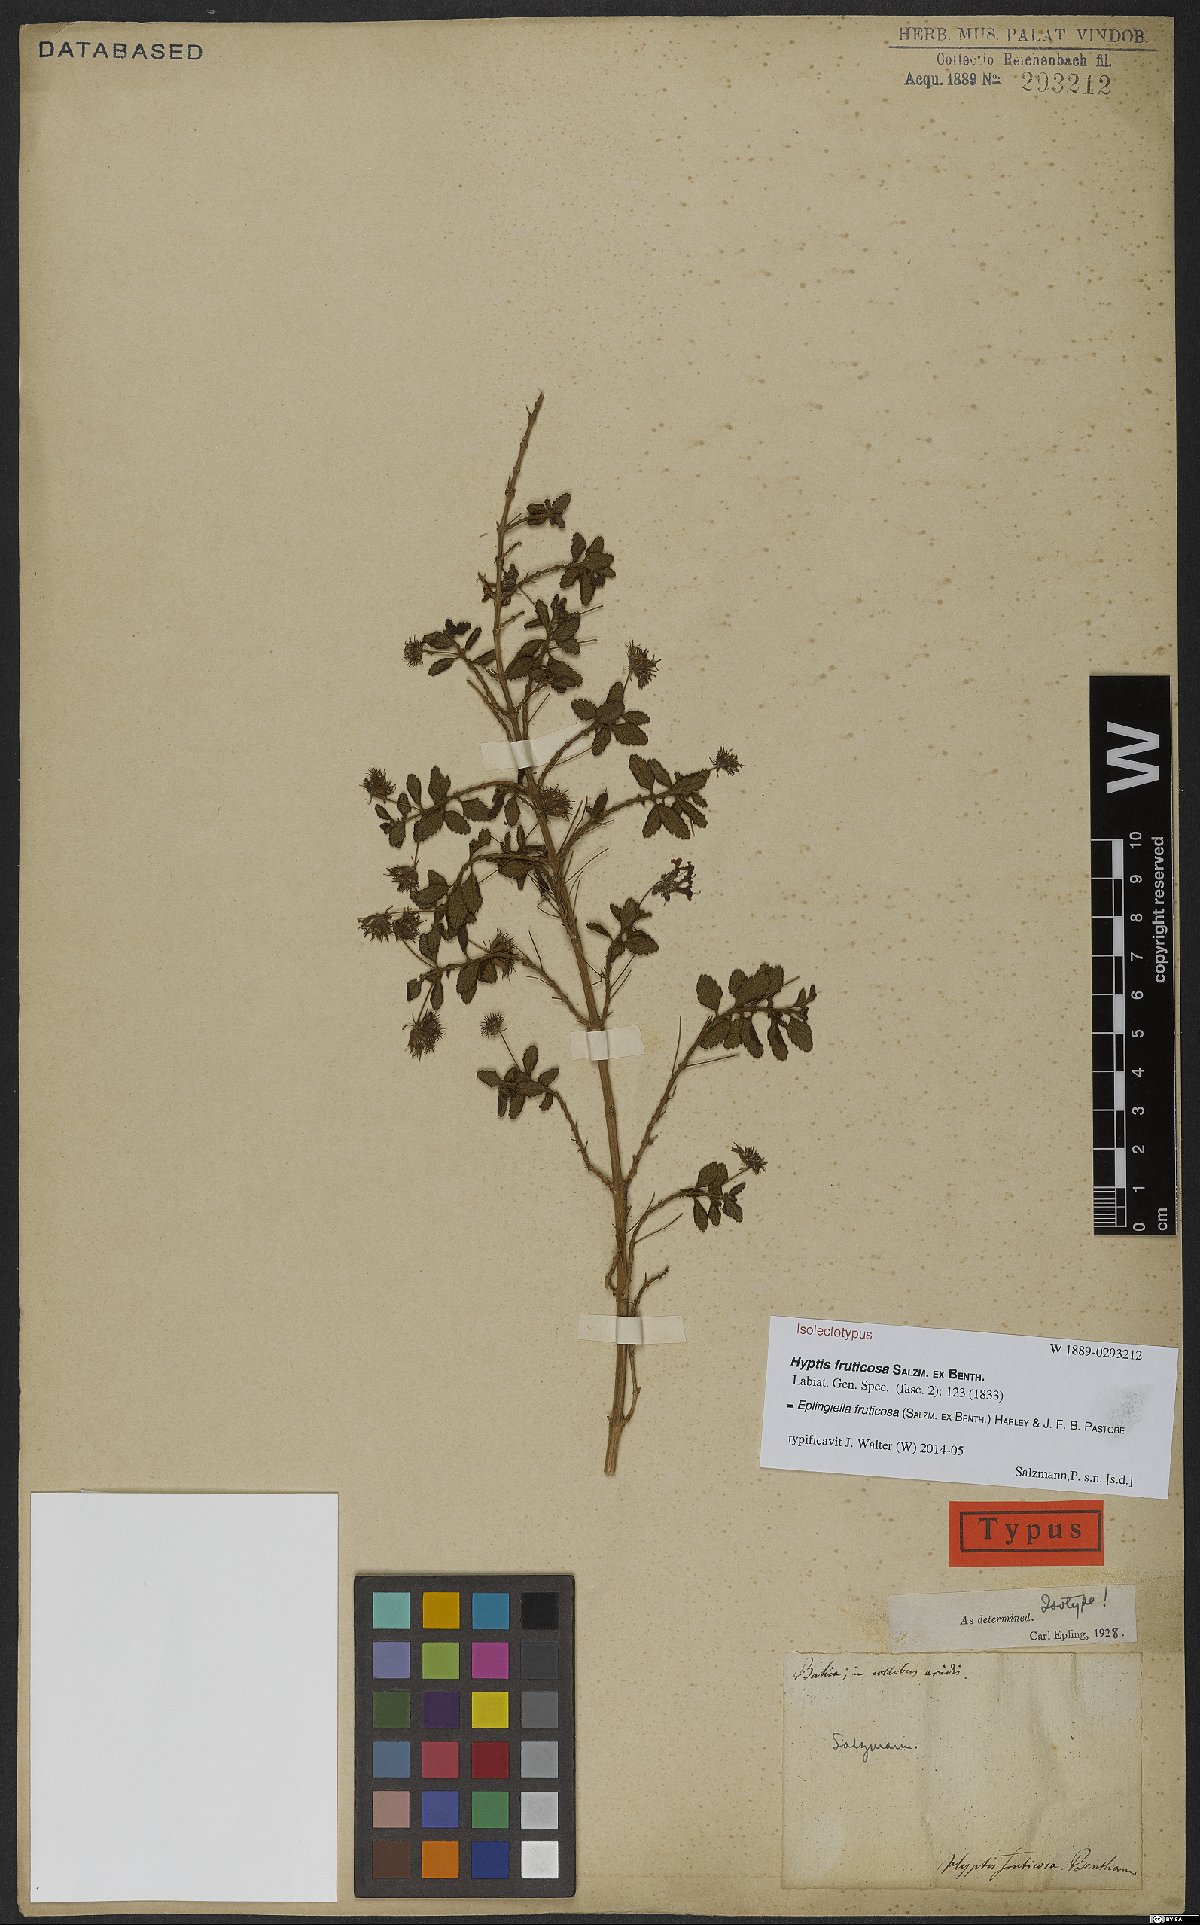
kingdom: Plantae
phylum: Tracheophyta
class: Magnoliopsida
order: Lamiales
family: Lamiaceae
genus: Eplingiella
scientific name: Eplingiella fruticosa
